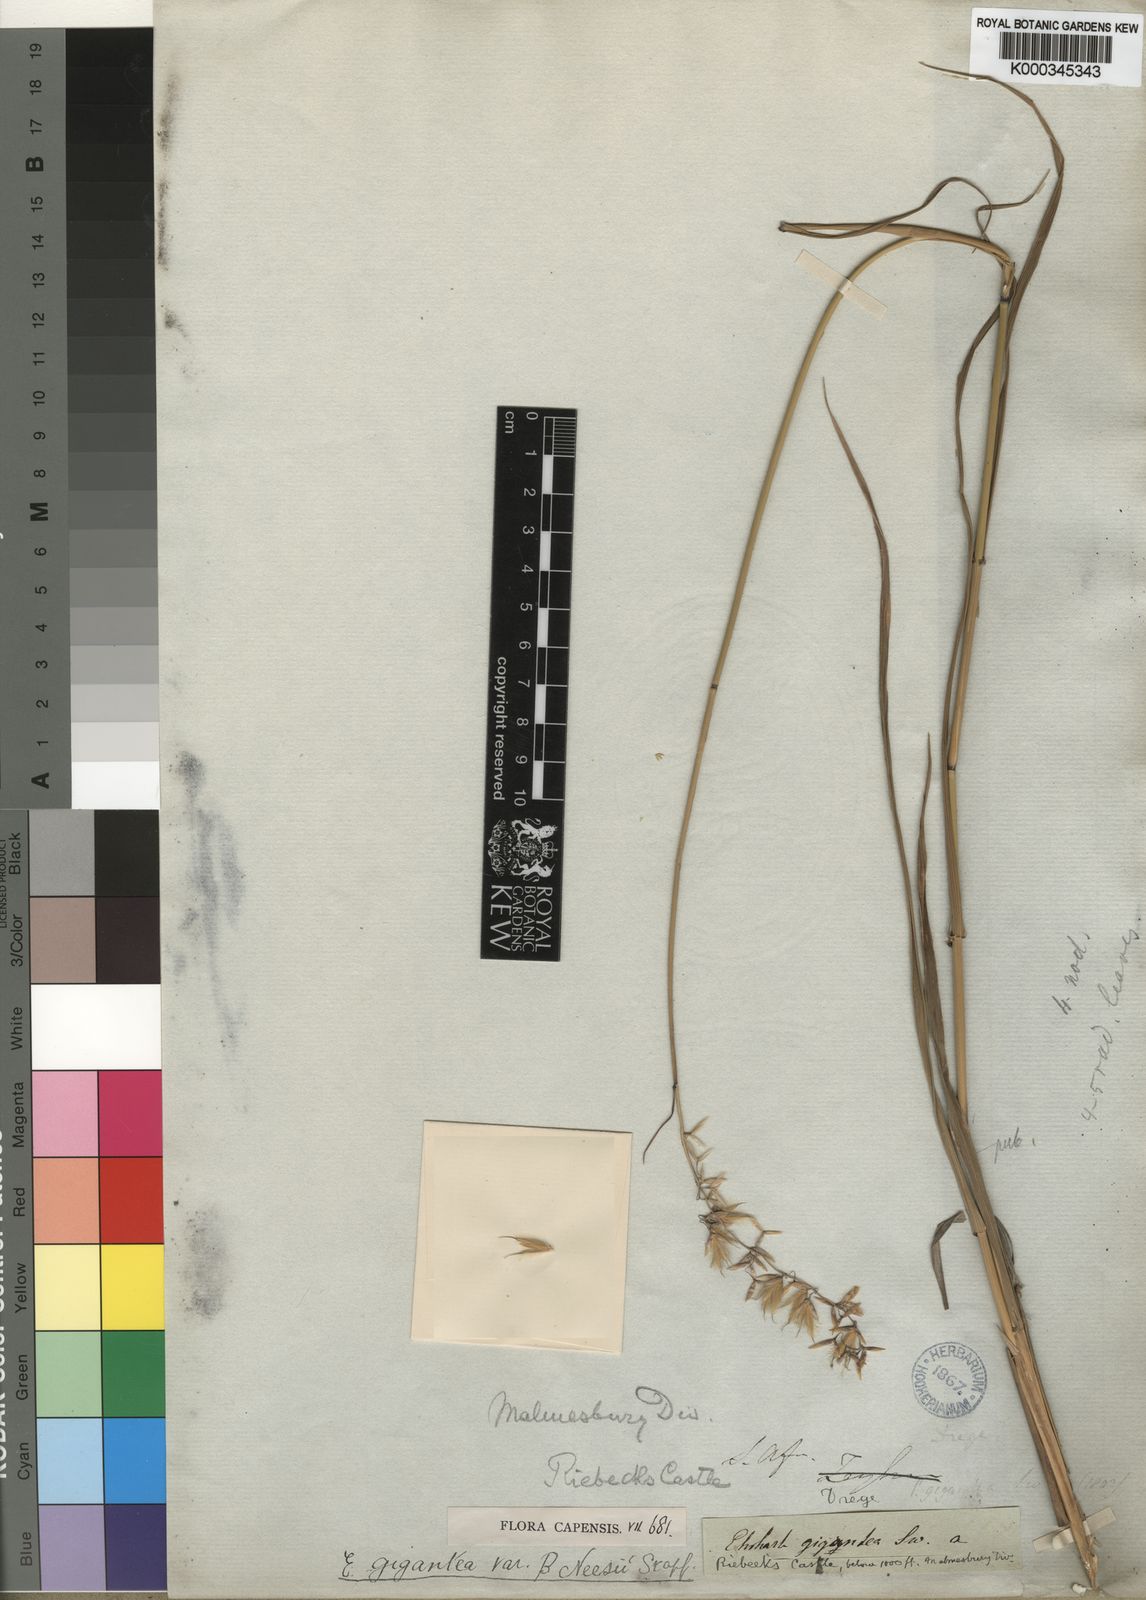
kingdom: Plantae
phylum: Tracheophyta
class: Liliopsida
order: Poales
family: Poaceae
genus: Ehrharta
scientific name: Ehrharta thunbergii
